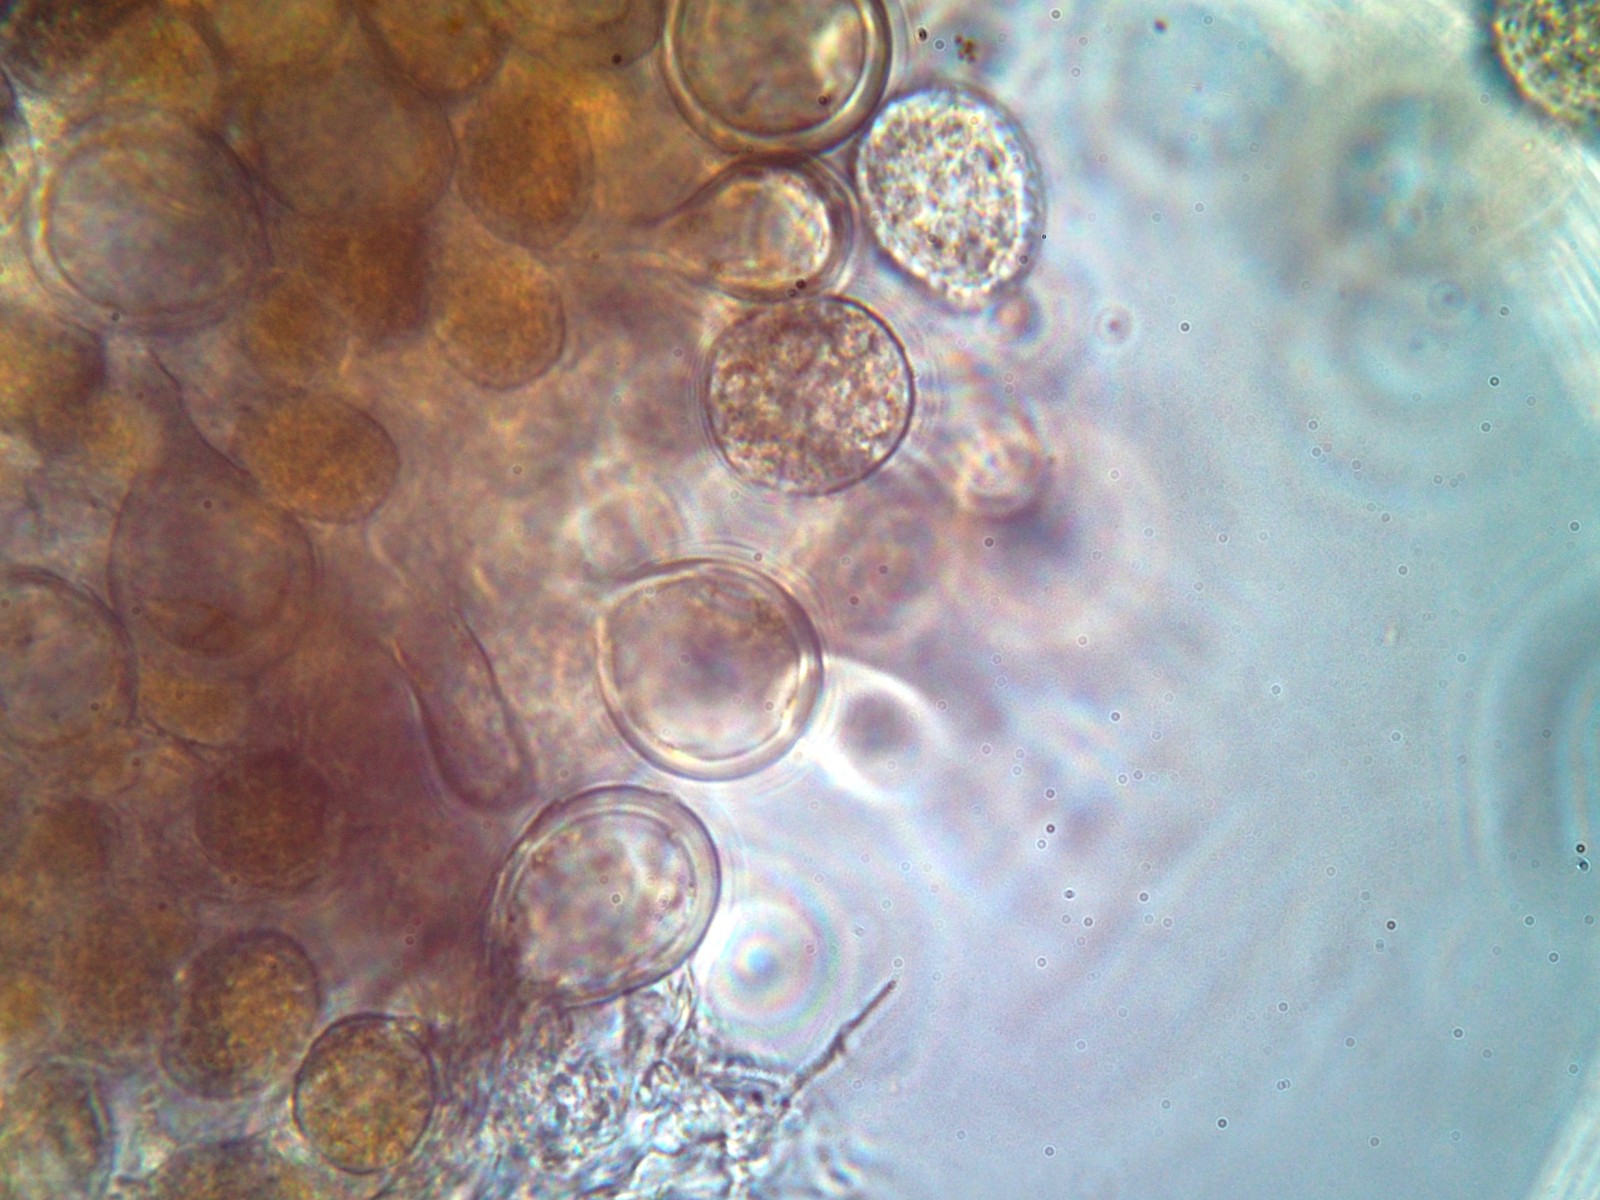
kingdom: Fungi
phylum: Basidiomycota
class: Pucciniomycetes
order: Pucciniales
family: Melampsoraceae
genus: Melampsora
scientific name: Melampsora epitea
